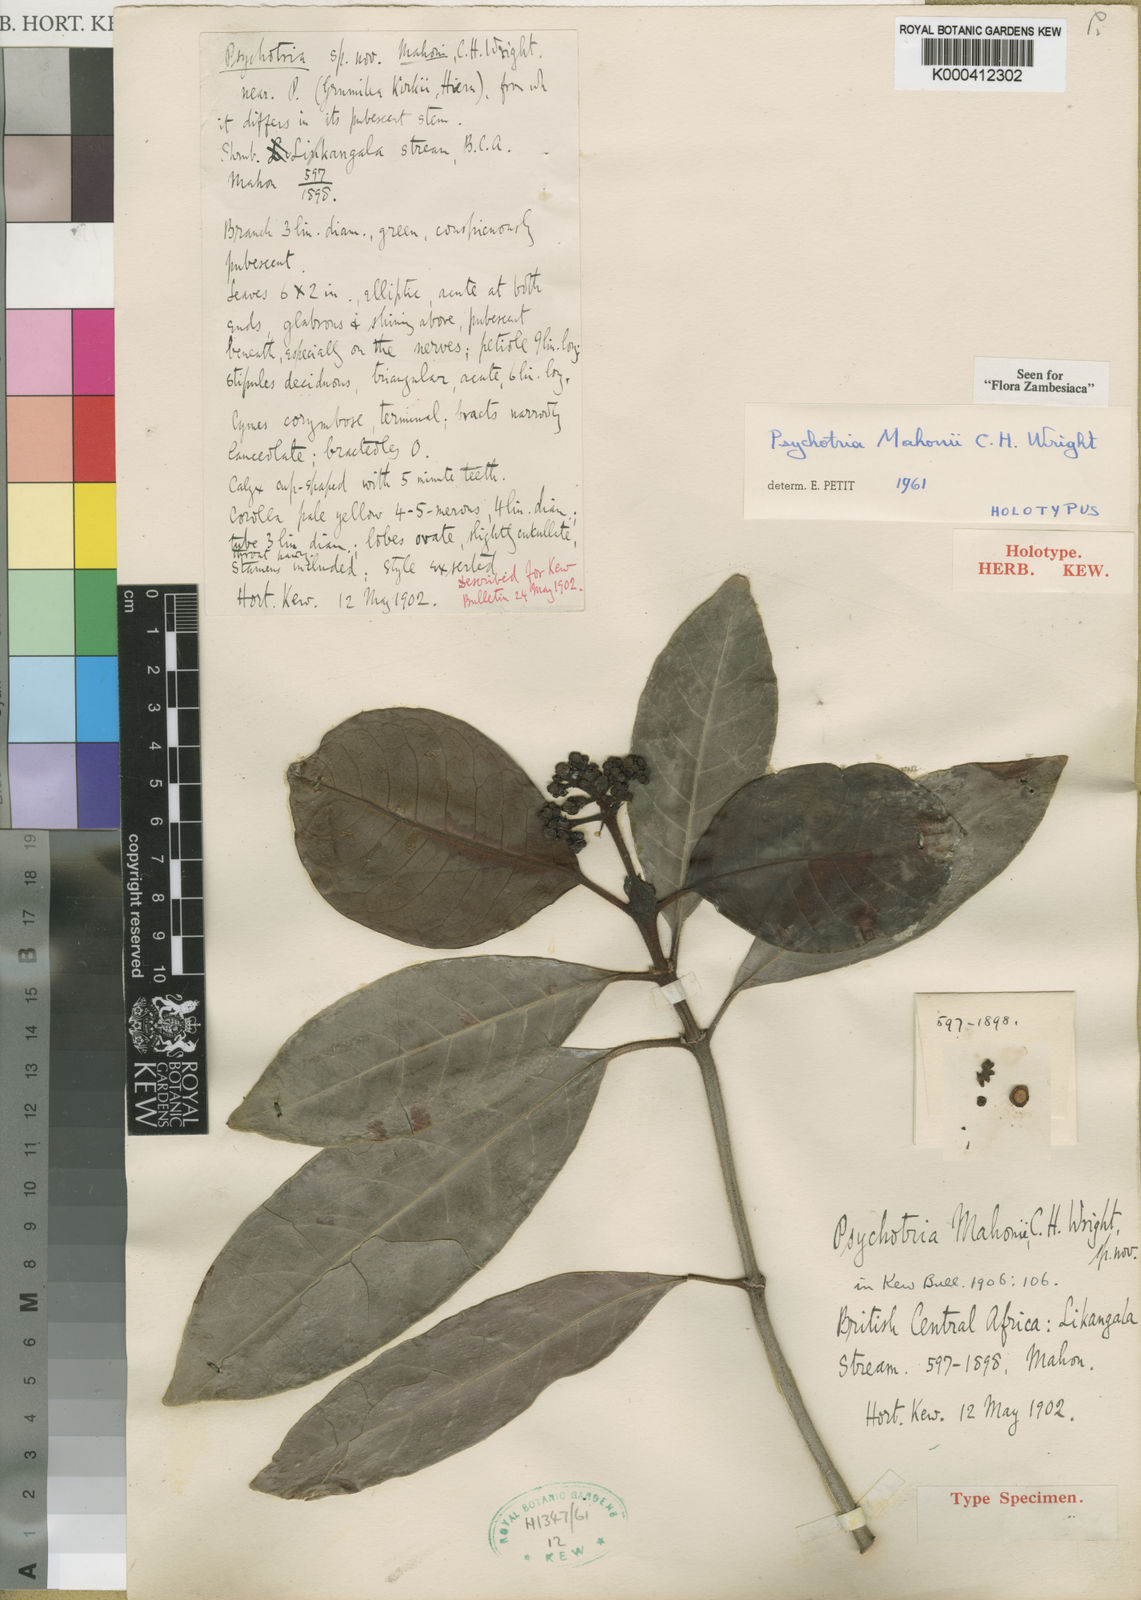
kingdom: Plantae
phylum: Tracheophyta
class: Magnoliopsida
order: Gentianales
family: Rubiaceae
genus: Psychotria
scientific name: Psychotria mahonii
